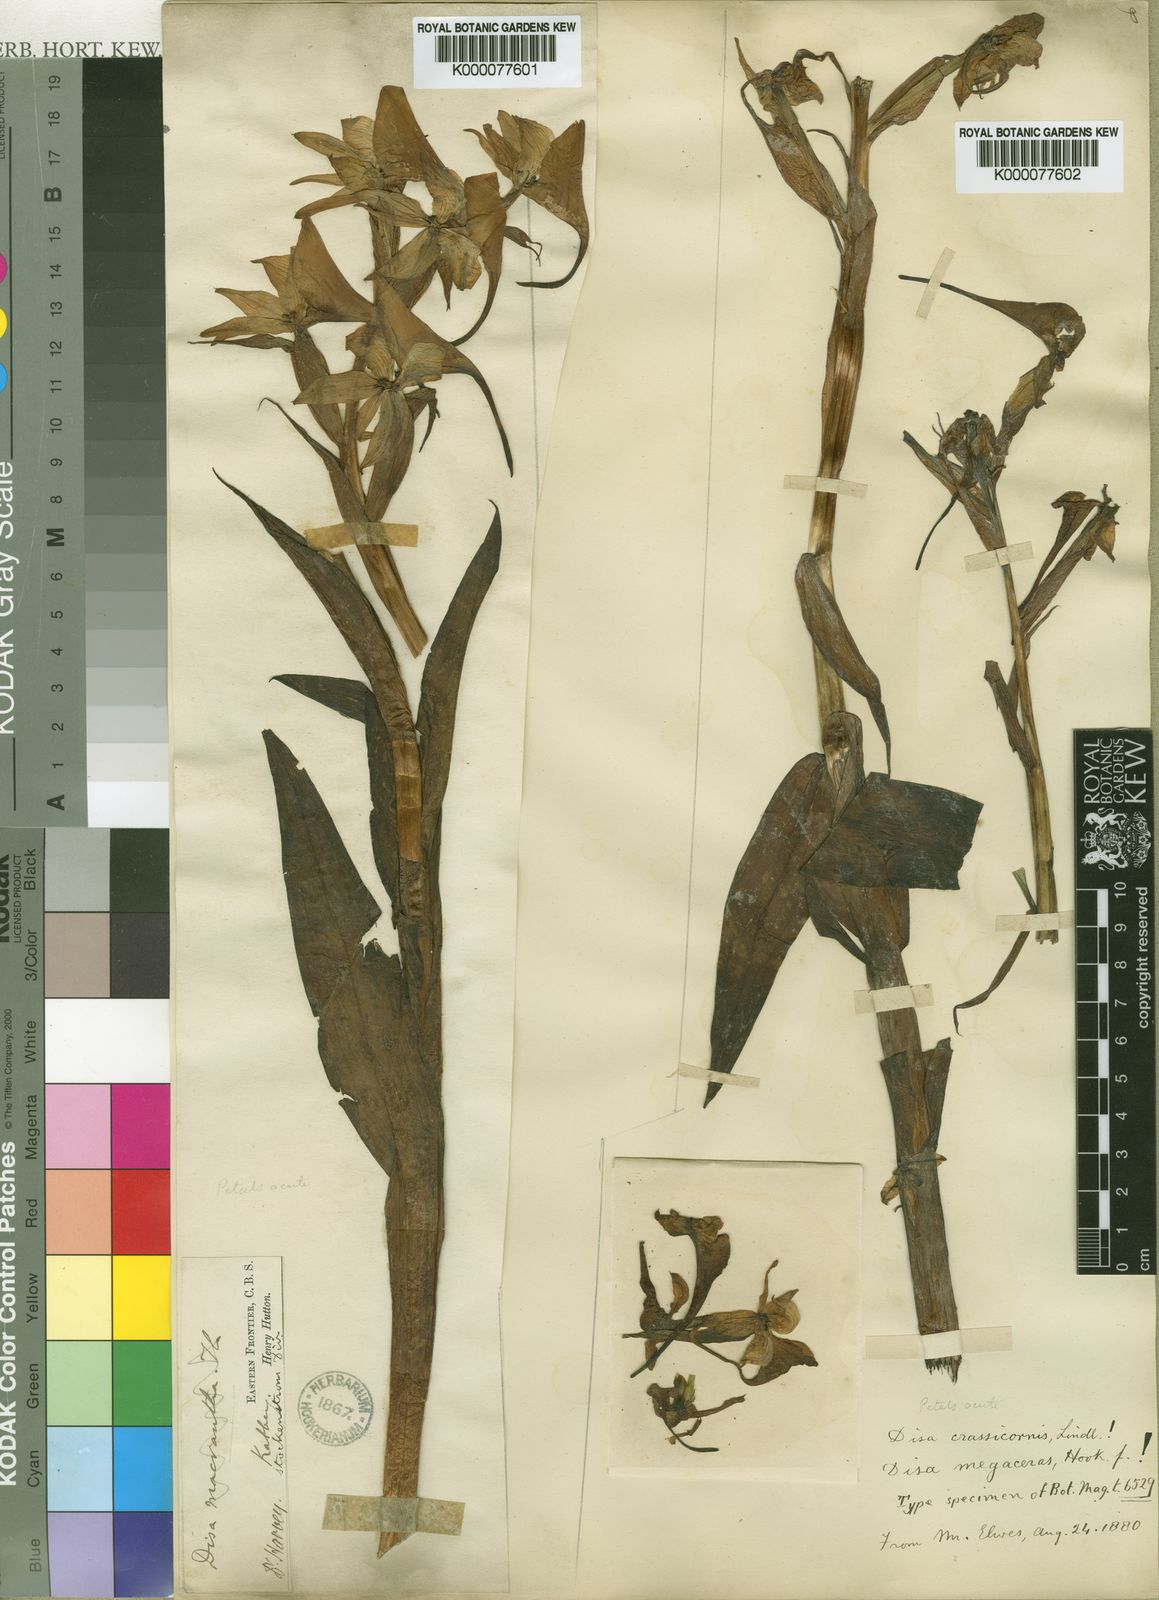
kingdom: Plantae
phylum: Tracheophyta
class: Liliopsida
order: Asparagales
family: Orchidaceae
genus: Disa
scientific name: Disa crassicornis
